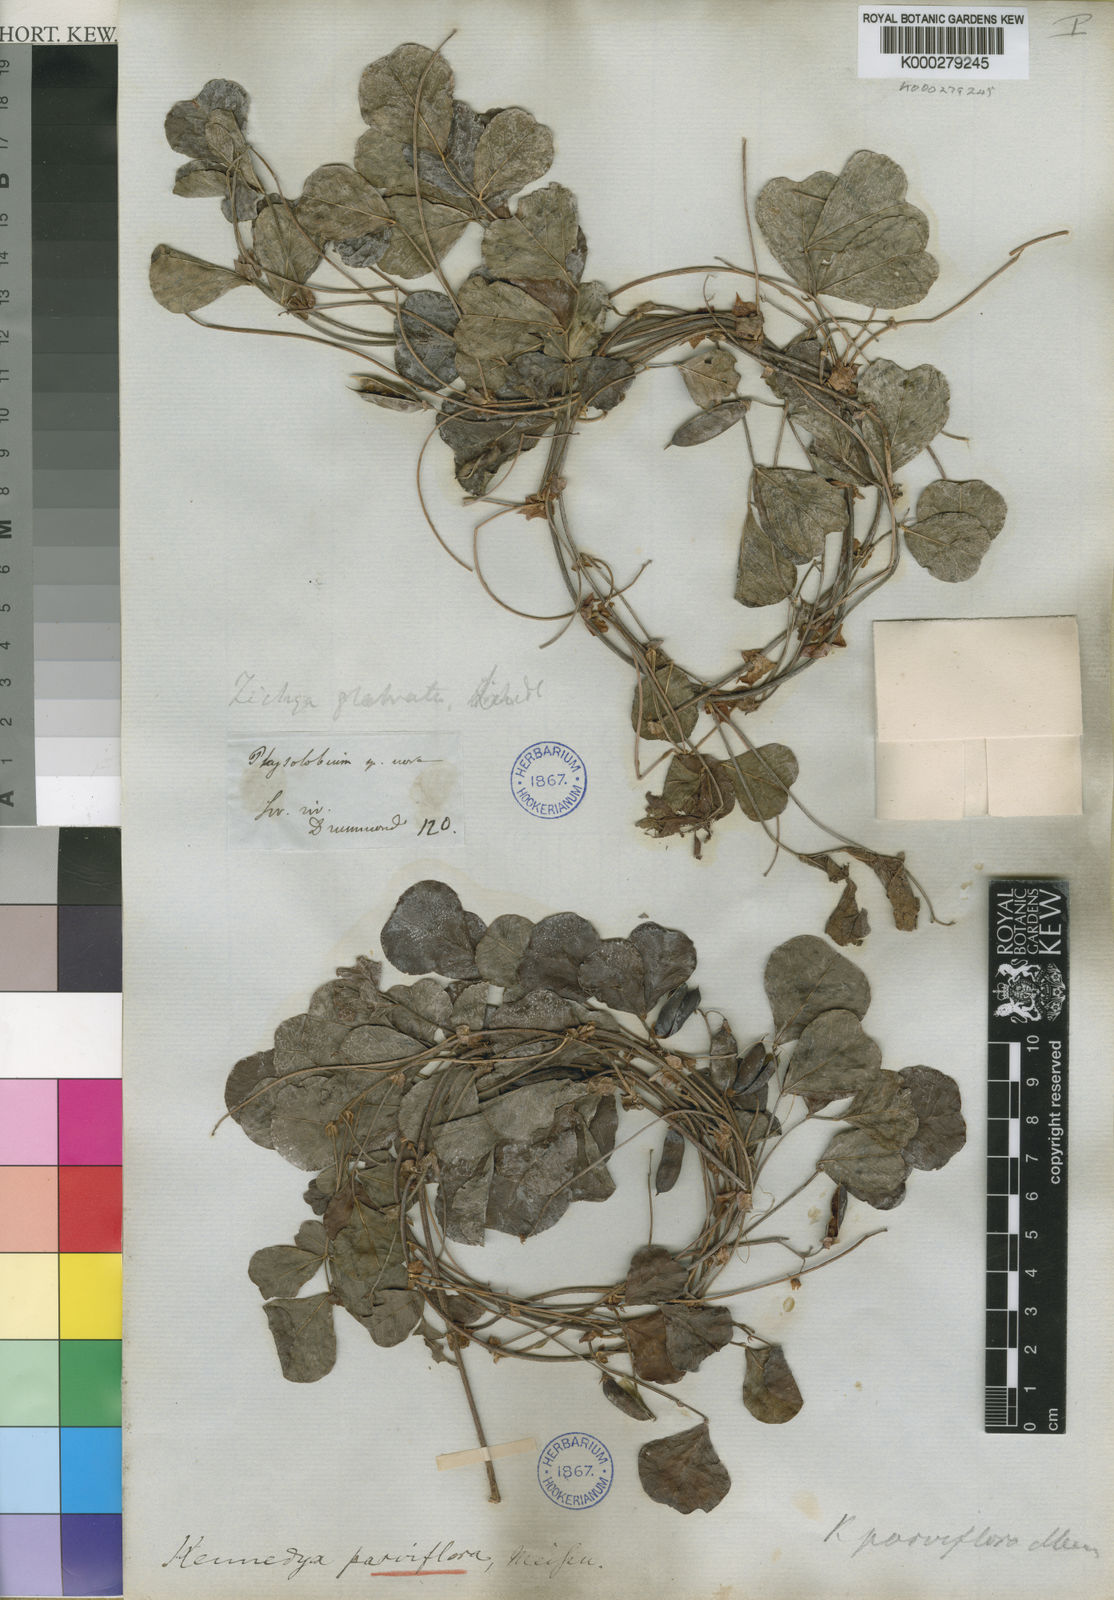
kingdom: Plantae
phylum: Tracheophyta
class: Magnoliopsida
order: Fabales
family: Fabaceae
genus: Kennedia
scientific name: Kennedia parviflora
